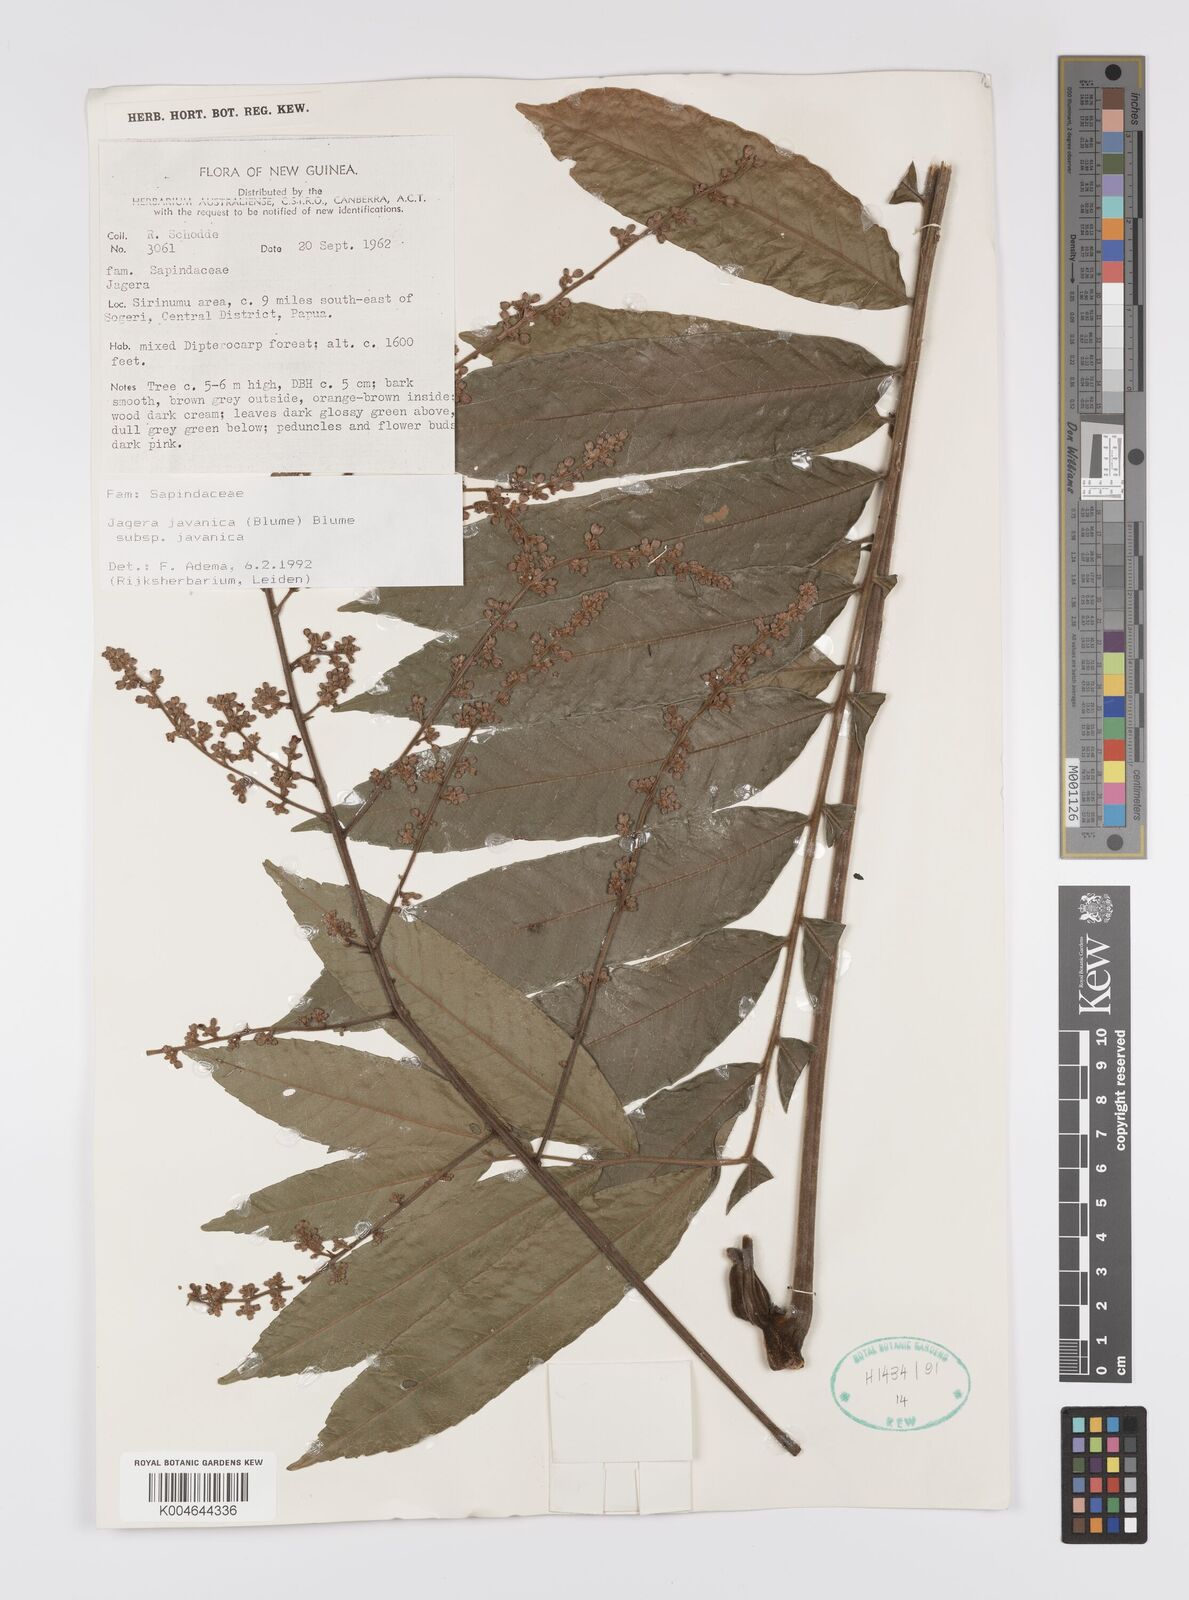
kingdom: Plantae
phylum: Tracheophyta
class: Magnoliopsida
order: Sapindales
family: Sapindaceae
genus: Jagera
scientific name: Jagera javanica
